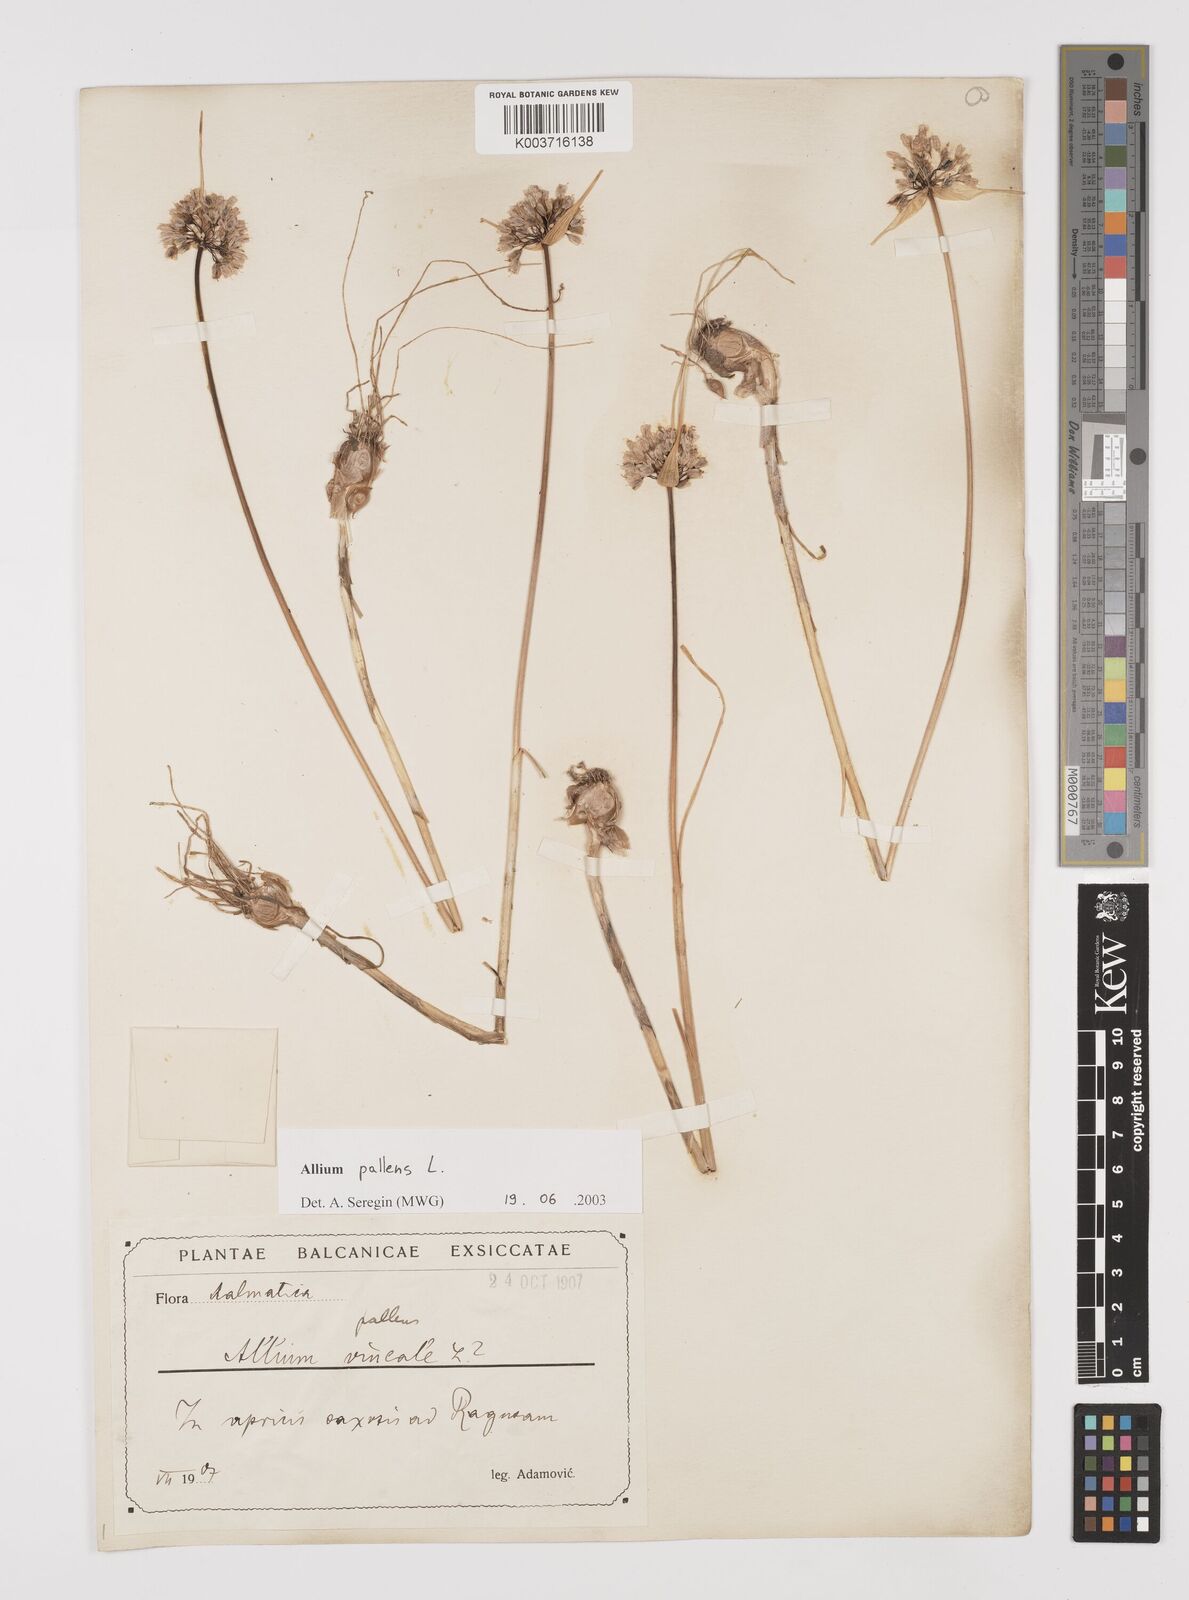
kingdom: Plantae
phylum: Tracheophyta
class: Liliopsida
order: Asparagales
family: Amaryllidaceae
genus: Allium
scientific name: Allium pallens
